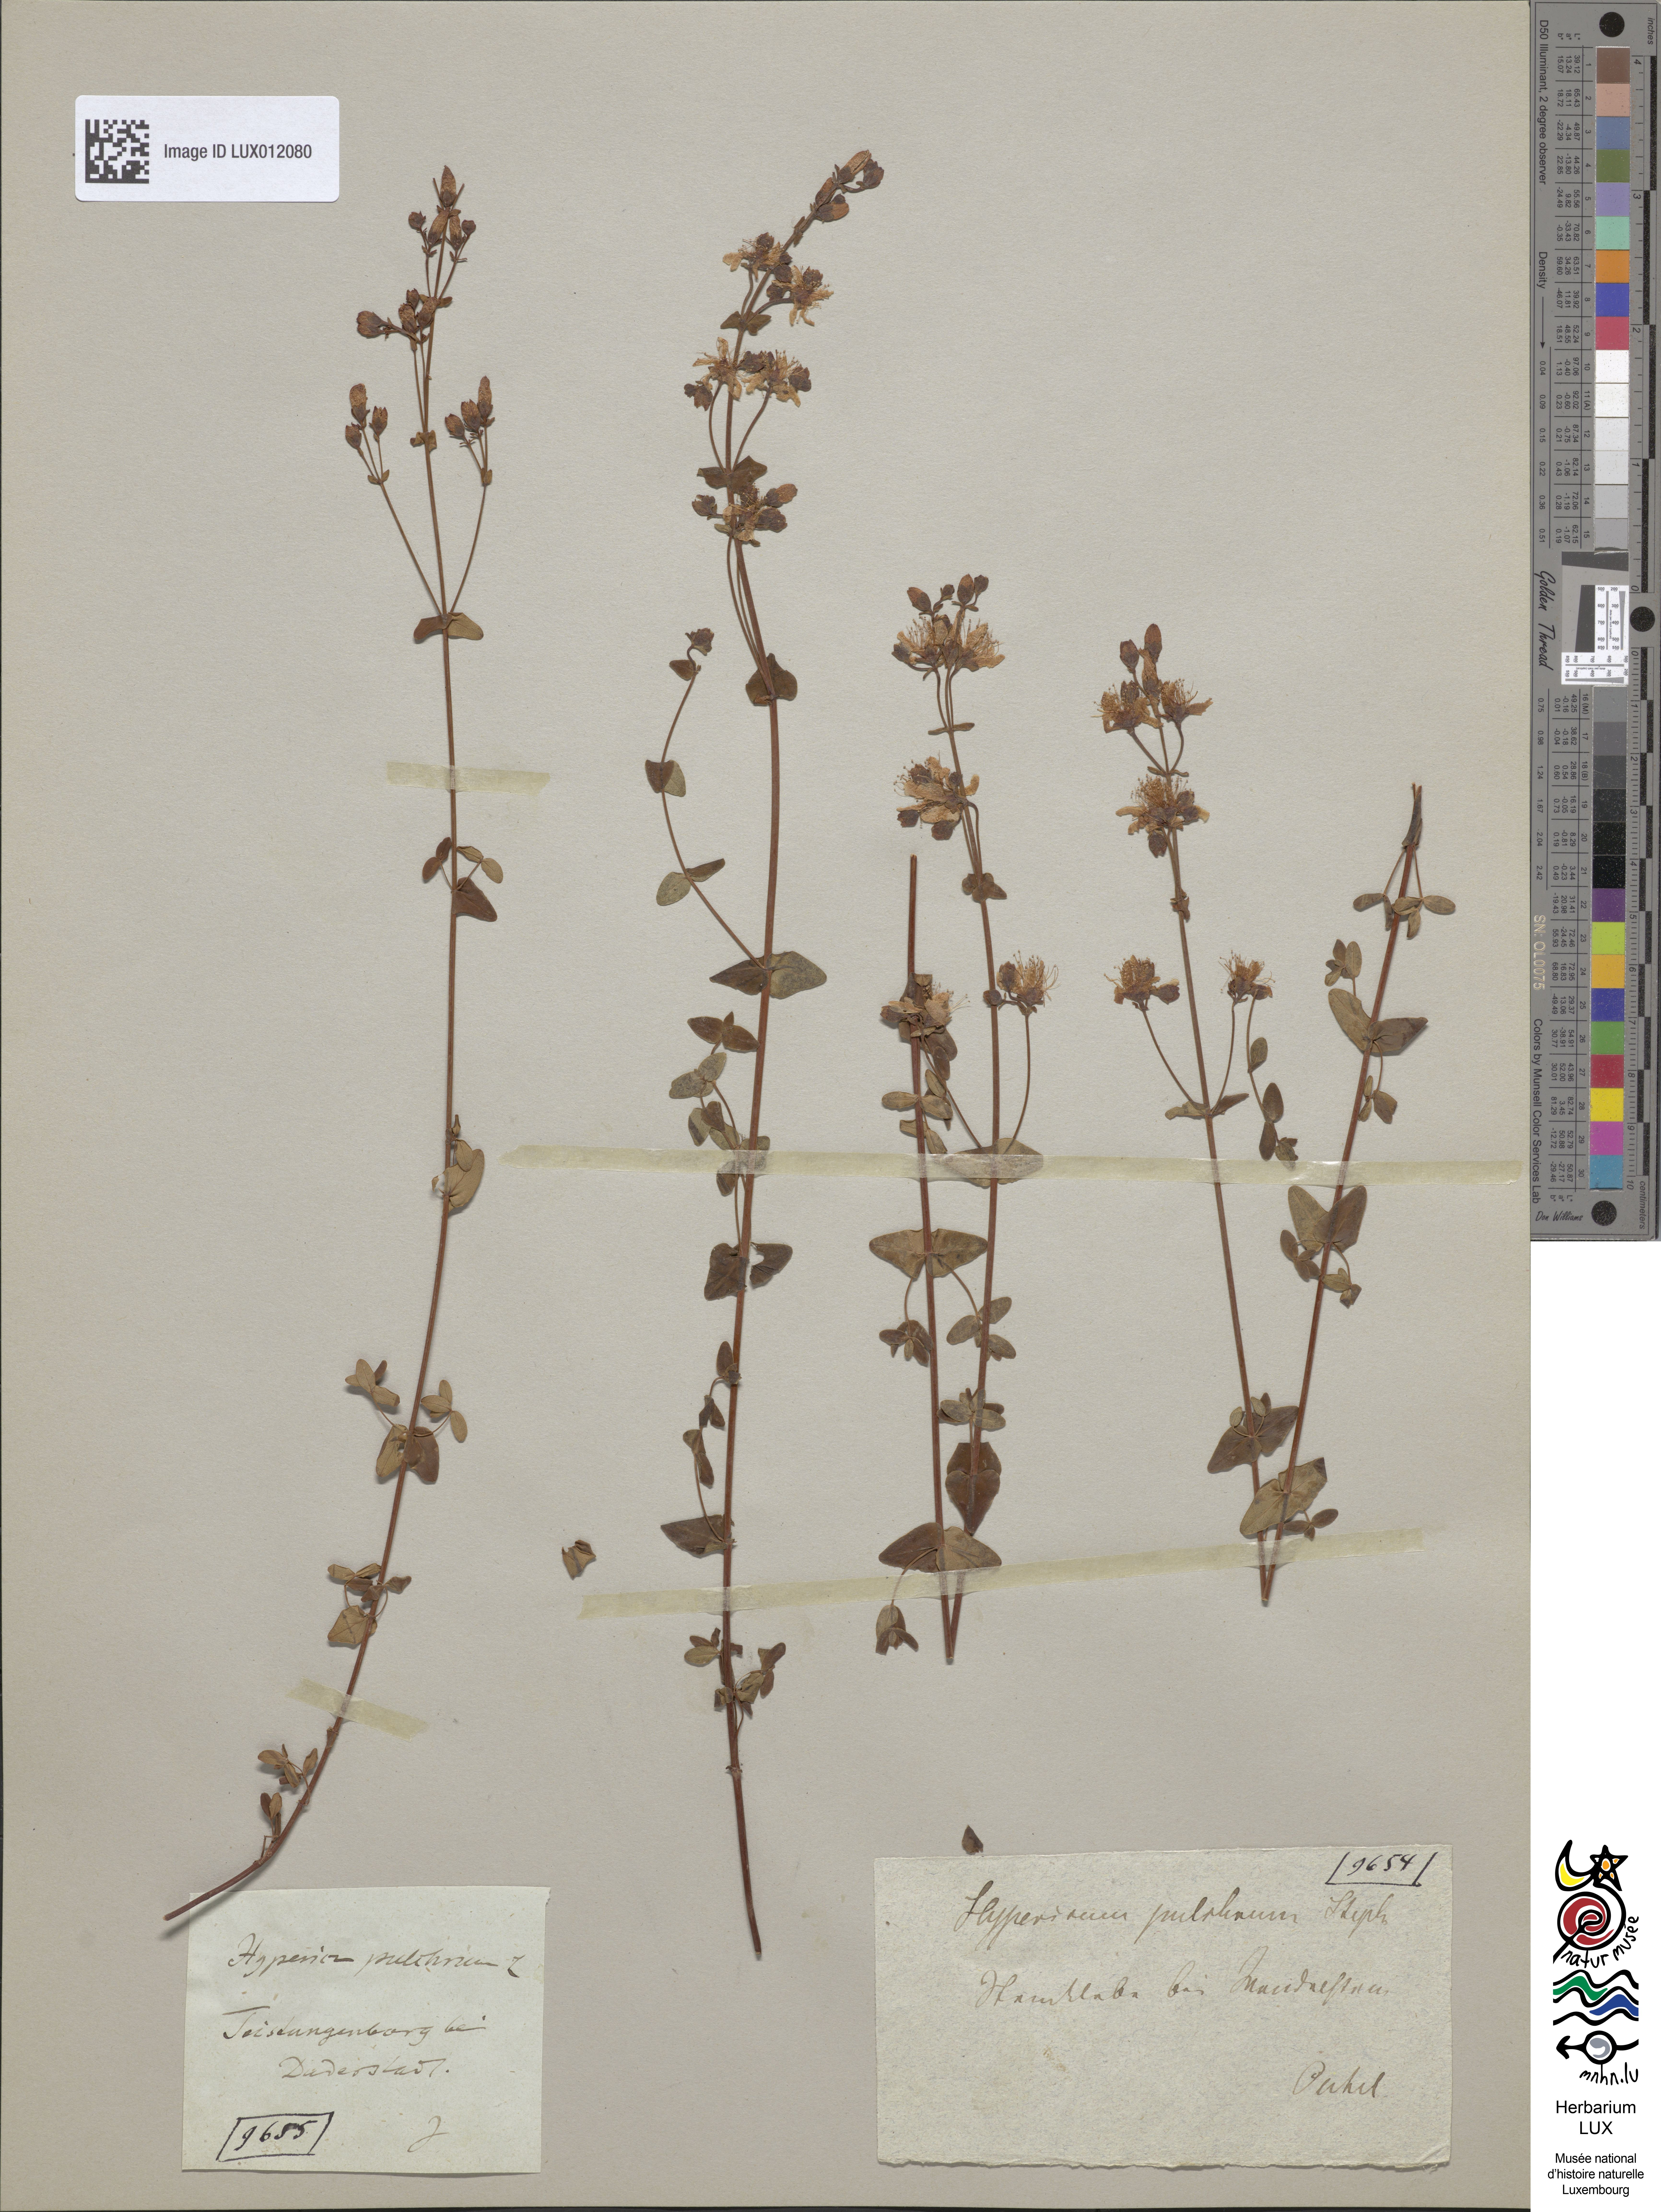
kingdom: Plantae
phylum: Tracheophyta
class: Magnoliopsida
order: Malpighiales
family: Hypericaceae
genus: Hypericum
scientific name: Hypericum pulchrum
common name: Slender st. john's-wort
